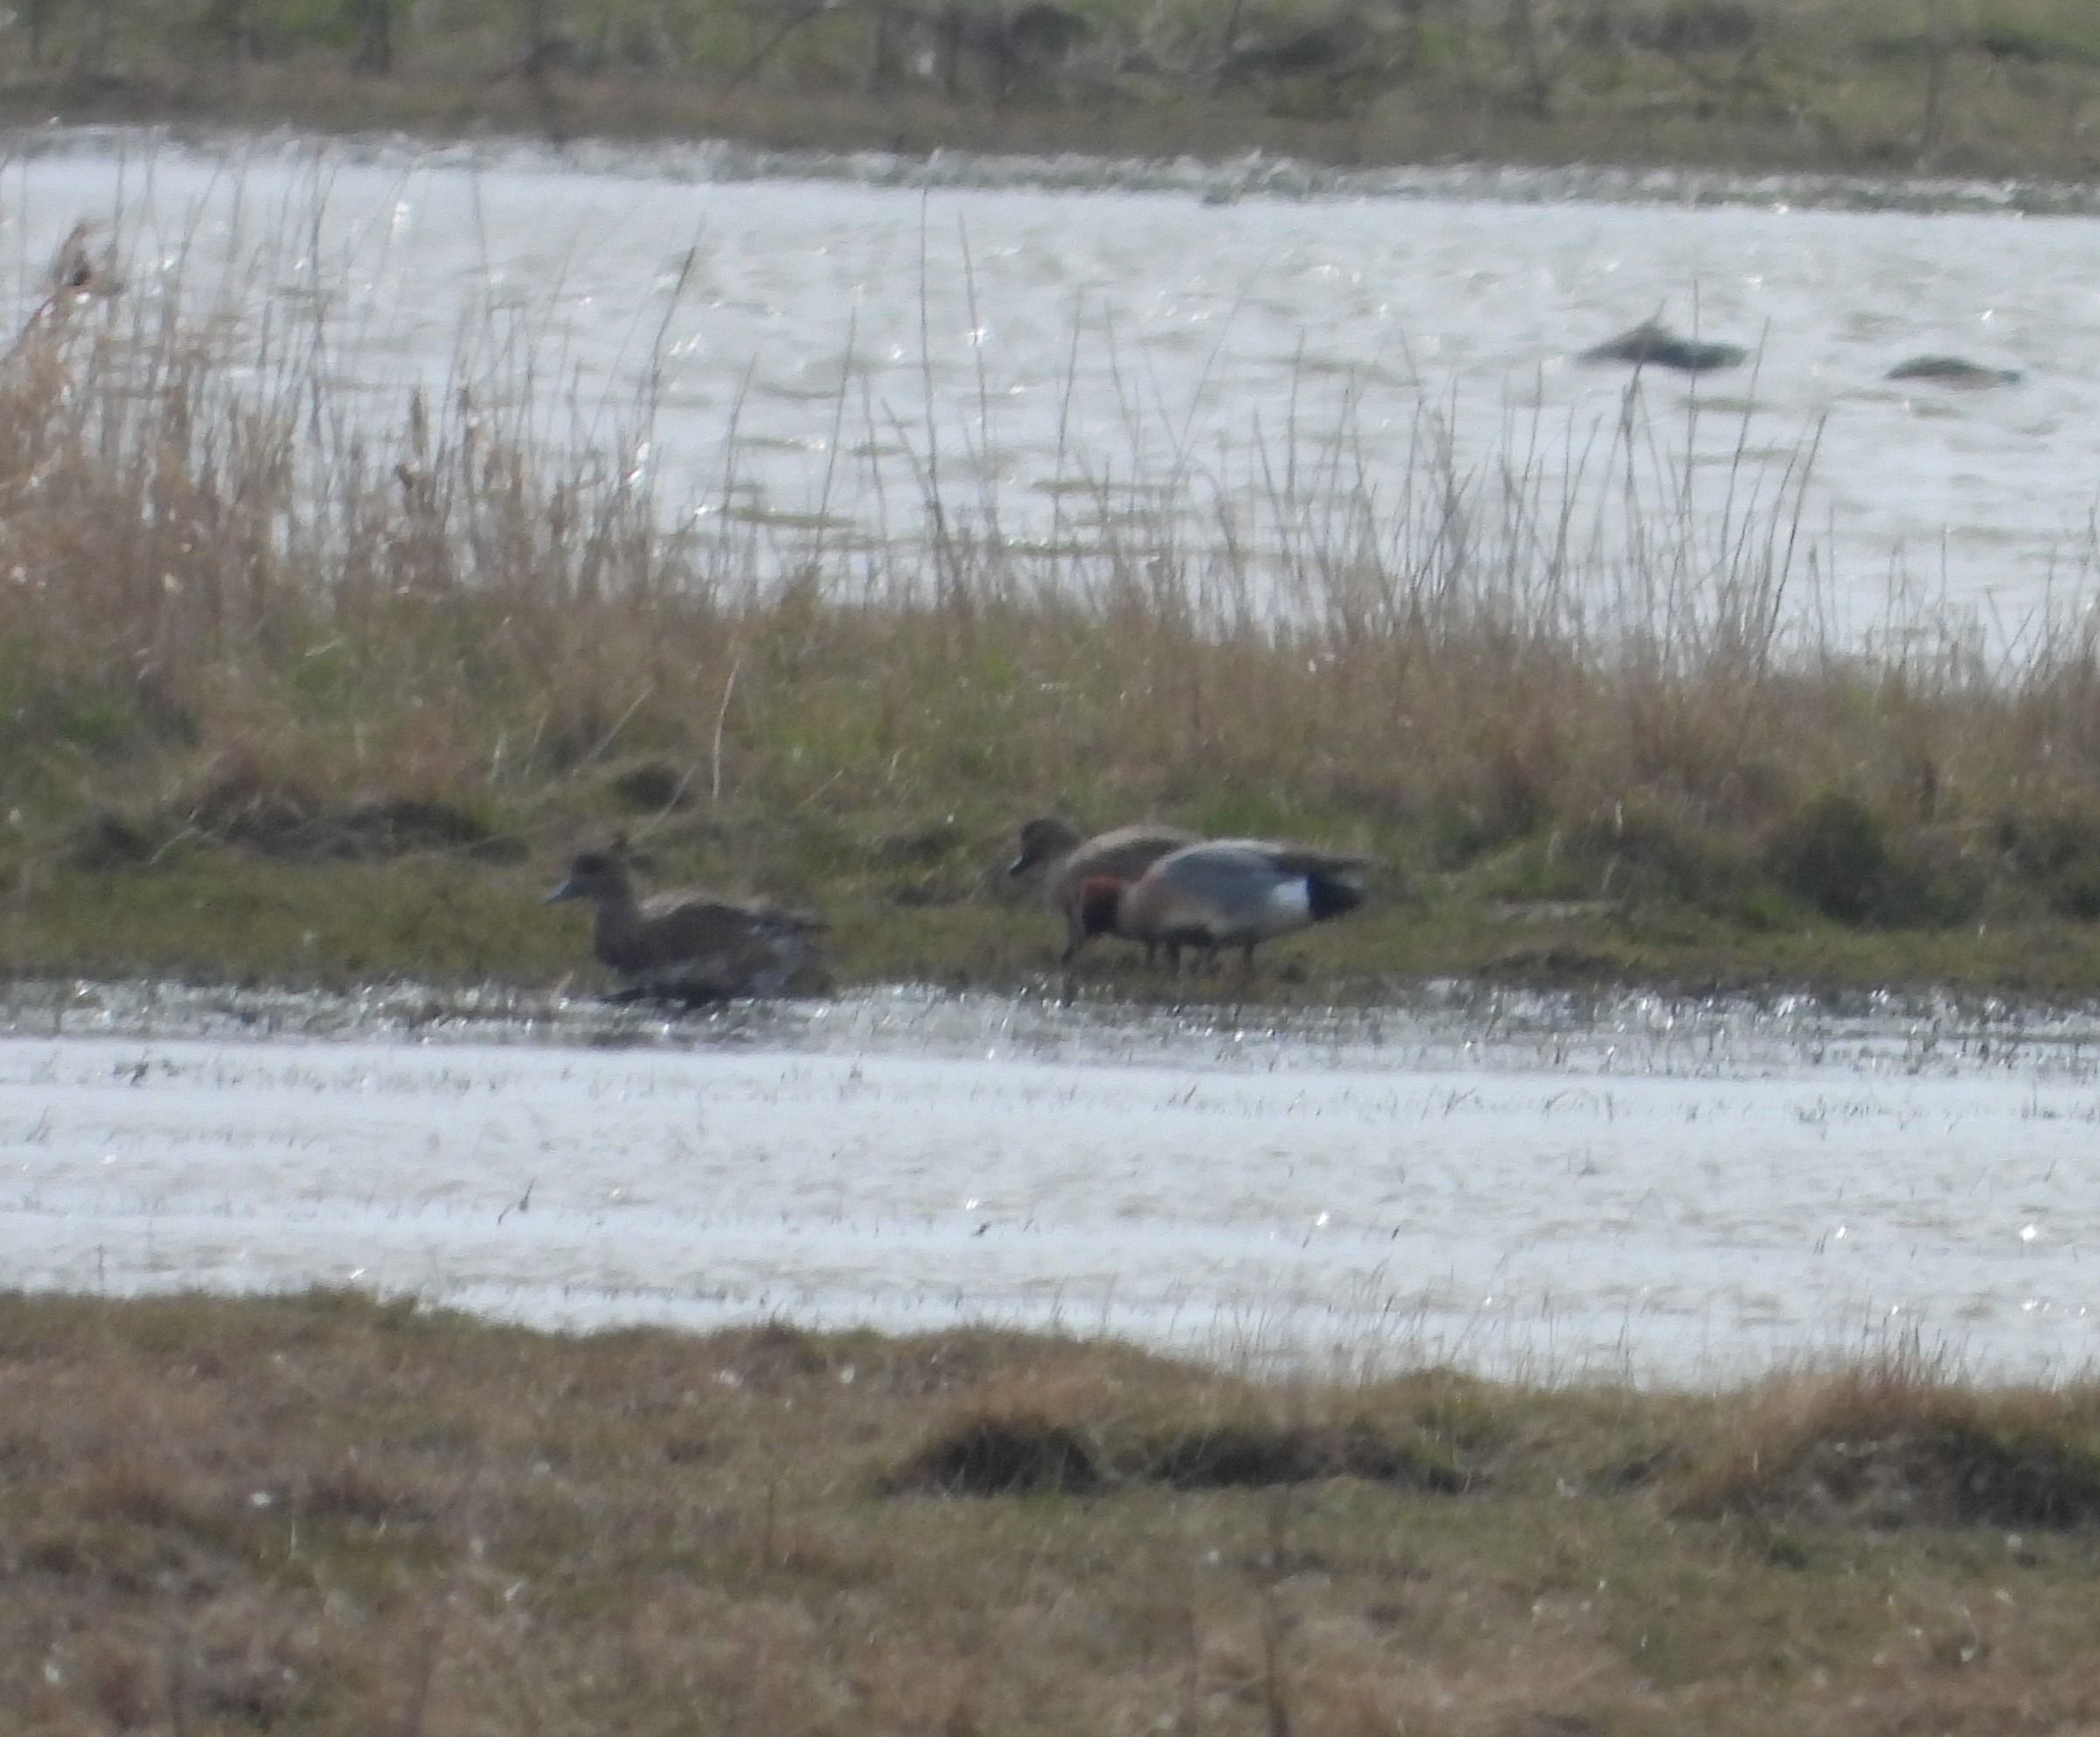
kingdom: Animalia
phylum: Chordata
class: Aves
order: Anseriformes
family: Anatidae
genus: Mareca
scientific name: Mareca penelope
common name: Pibeand
